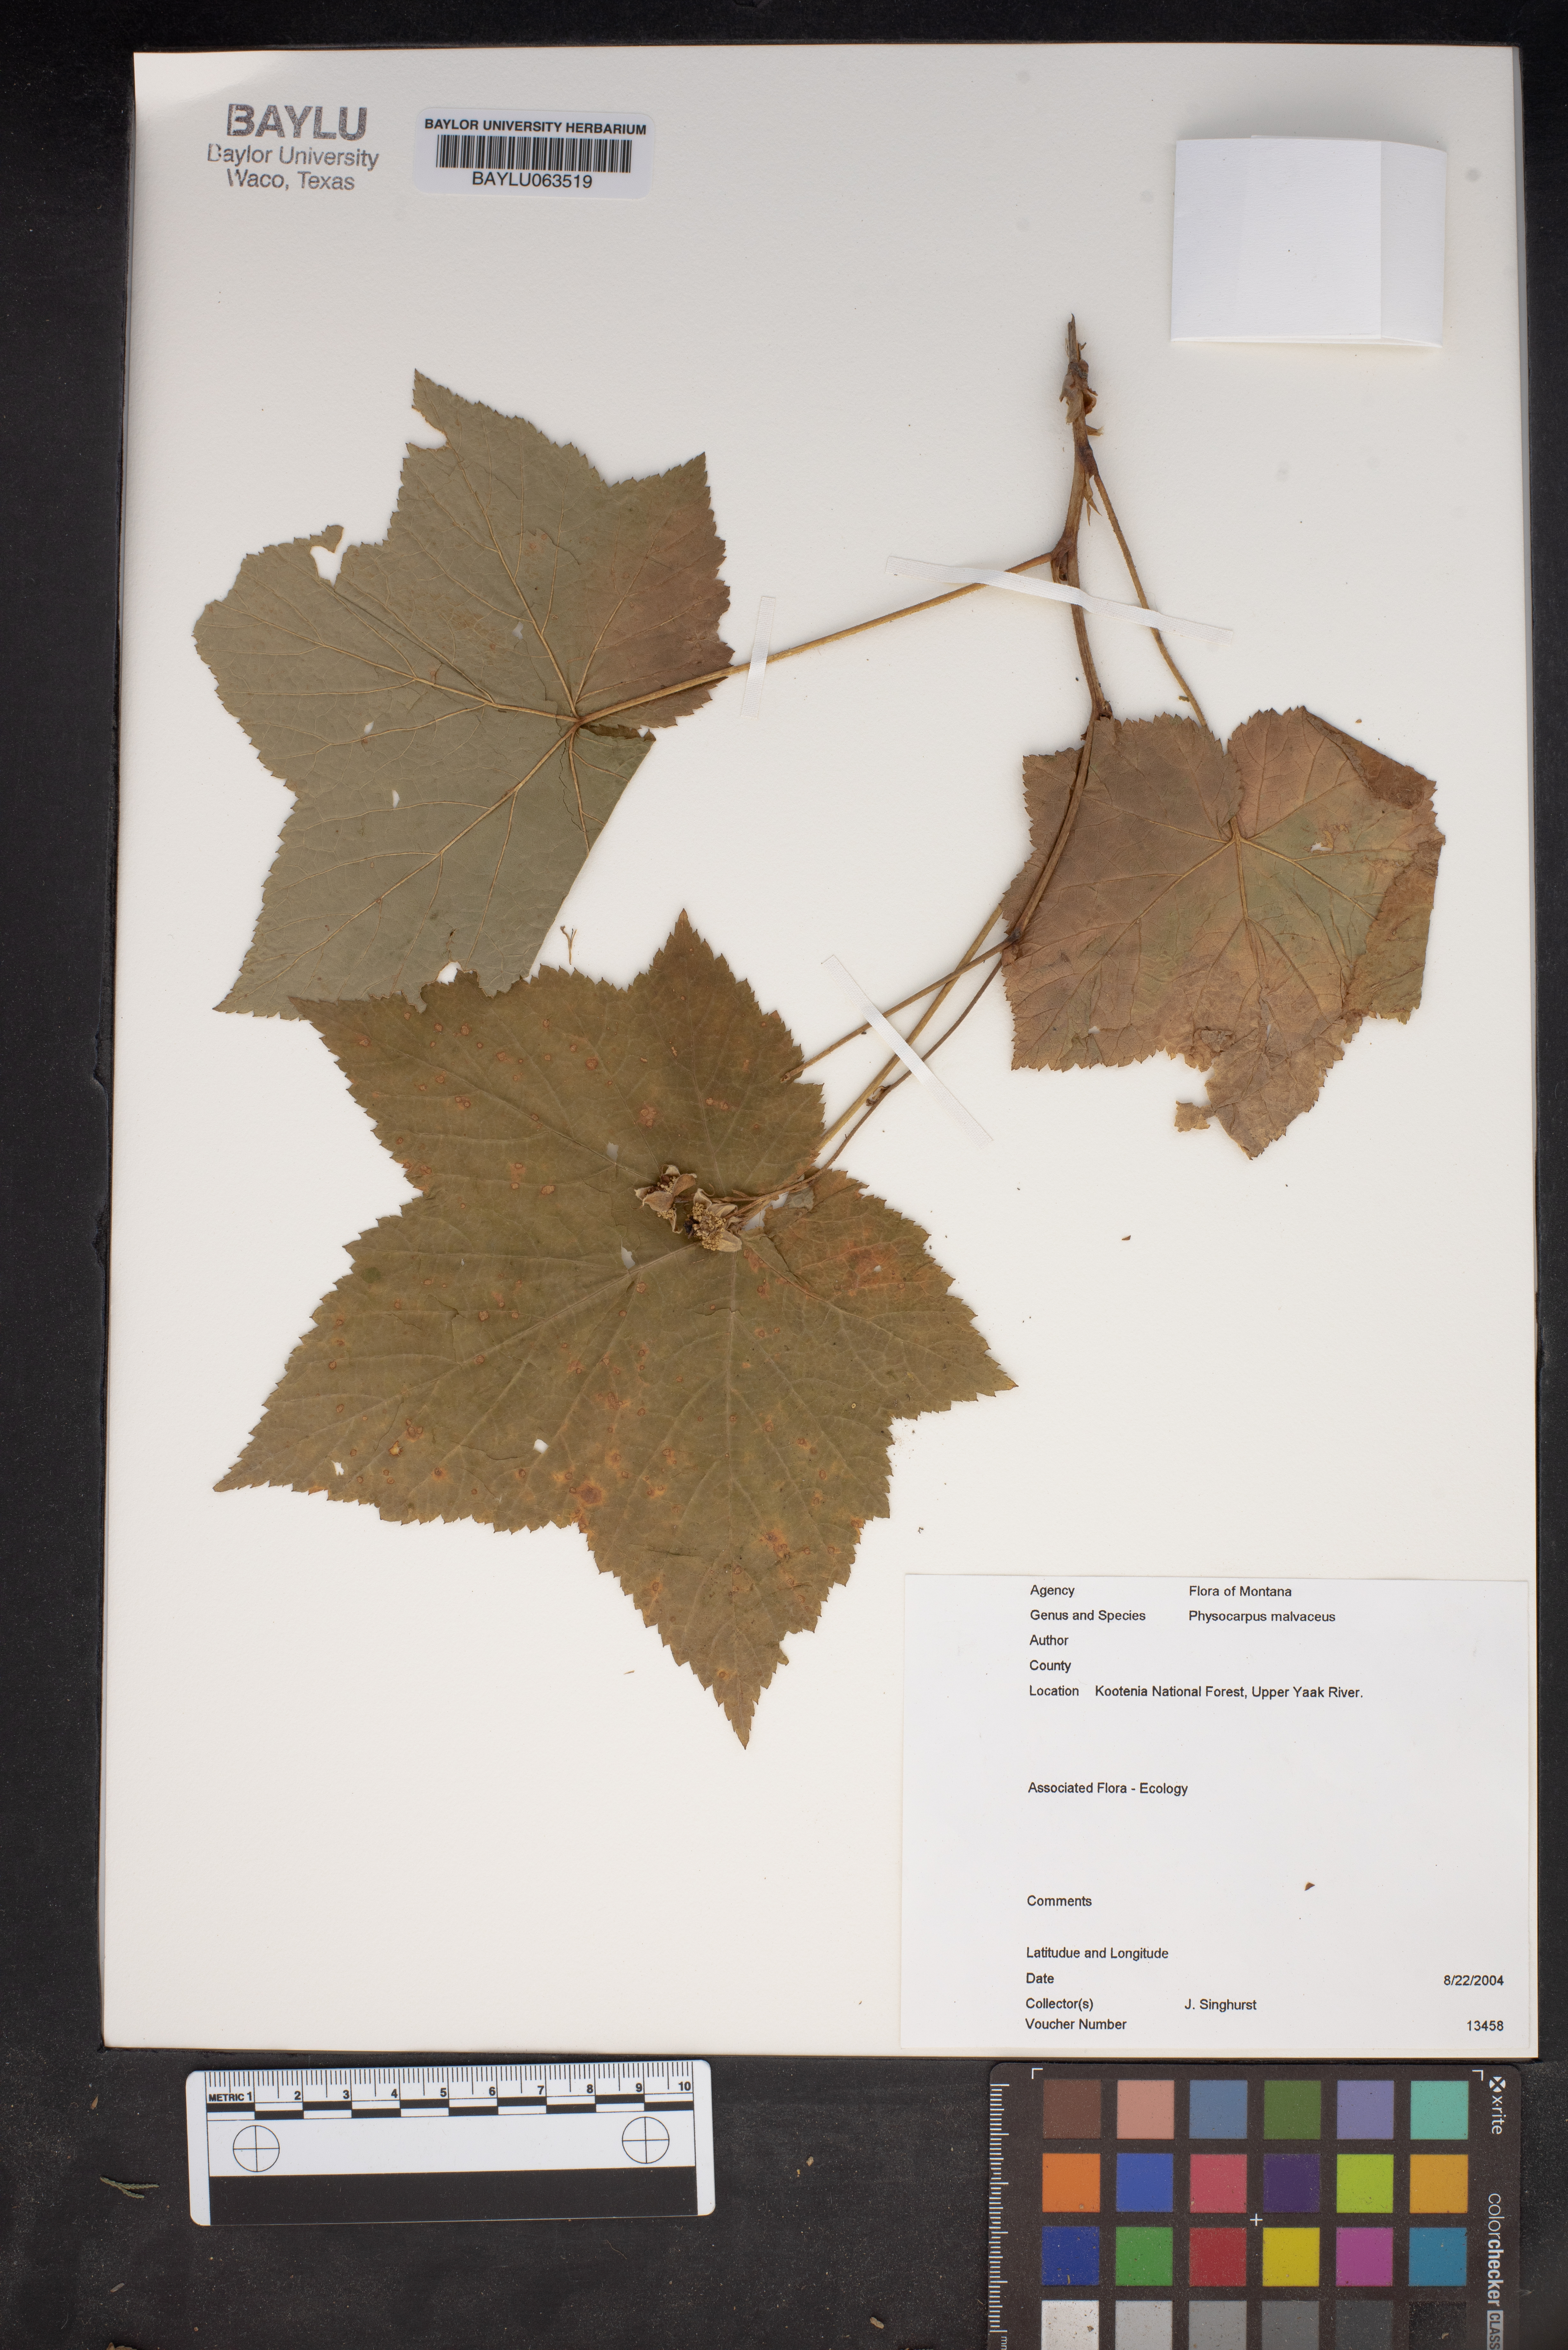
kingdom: Plantae
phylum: Tracheophyta
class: Magnoliopsida
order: Rosales
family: Rosaceae
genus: Physocarpus
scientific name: Physocarpus malvaceus
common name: Mallow ninebark
